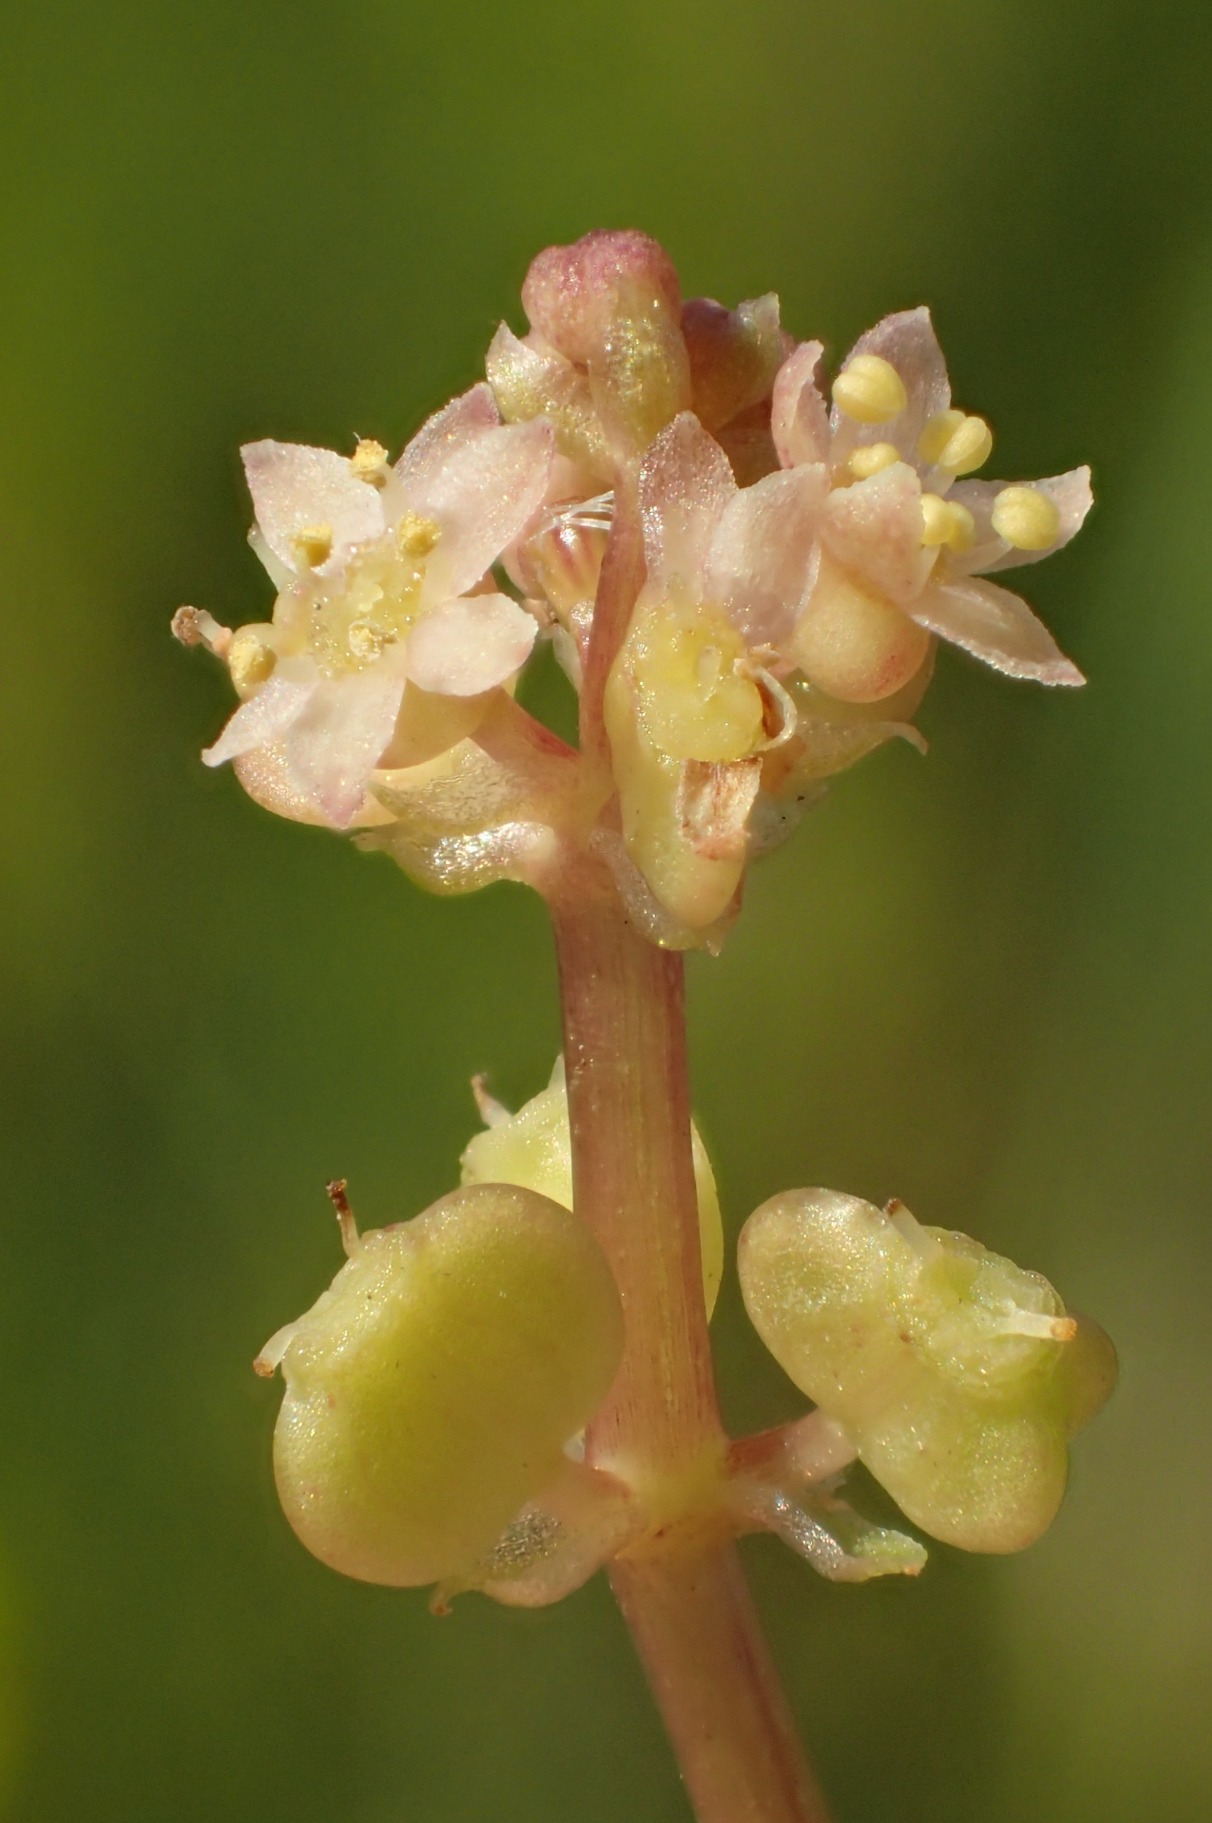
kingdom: Plantae
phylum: Tracheophyta
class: Magnoliopsida
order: Apiales
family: Araliaceae
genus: Hydrocotyle
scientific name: Hydrocotyle vulgaris
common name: Vandnavle
